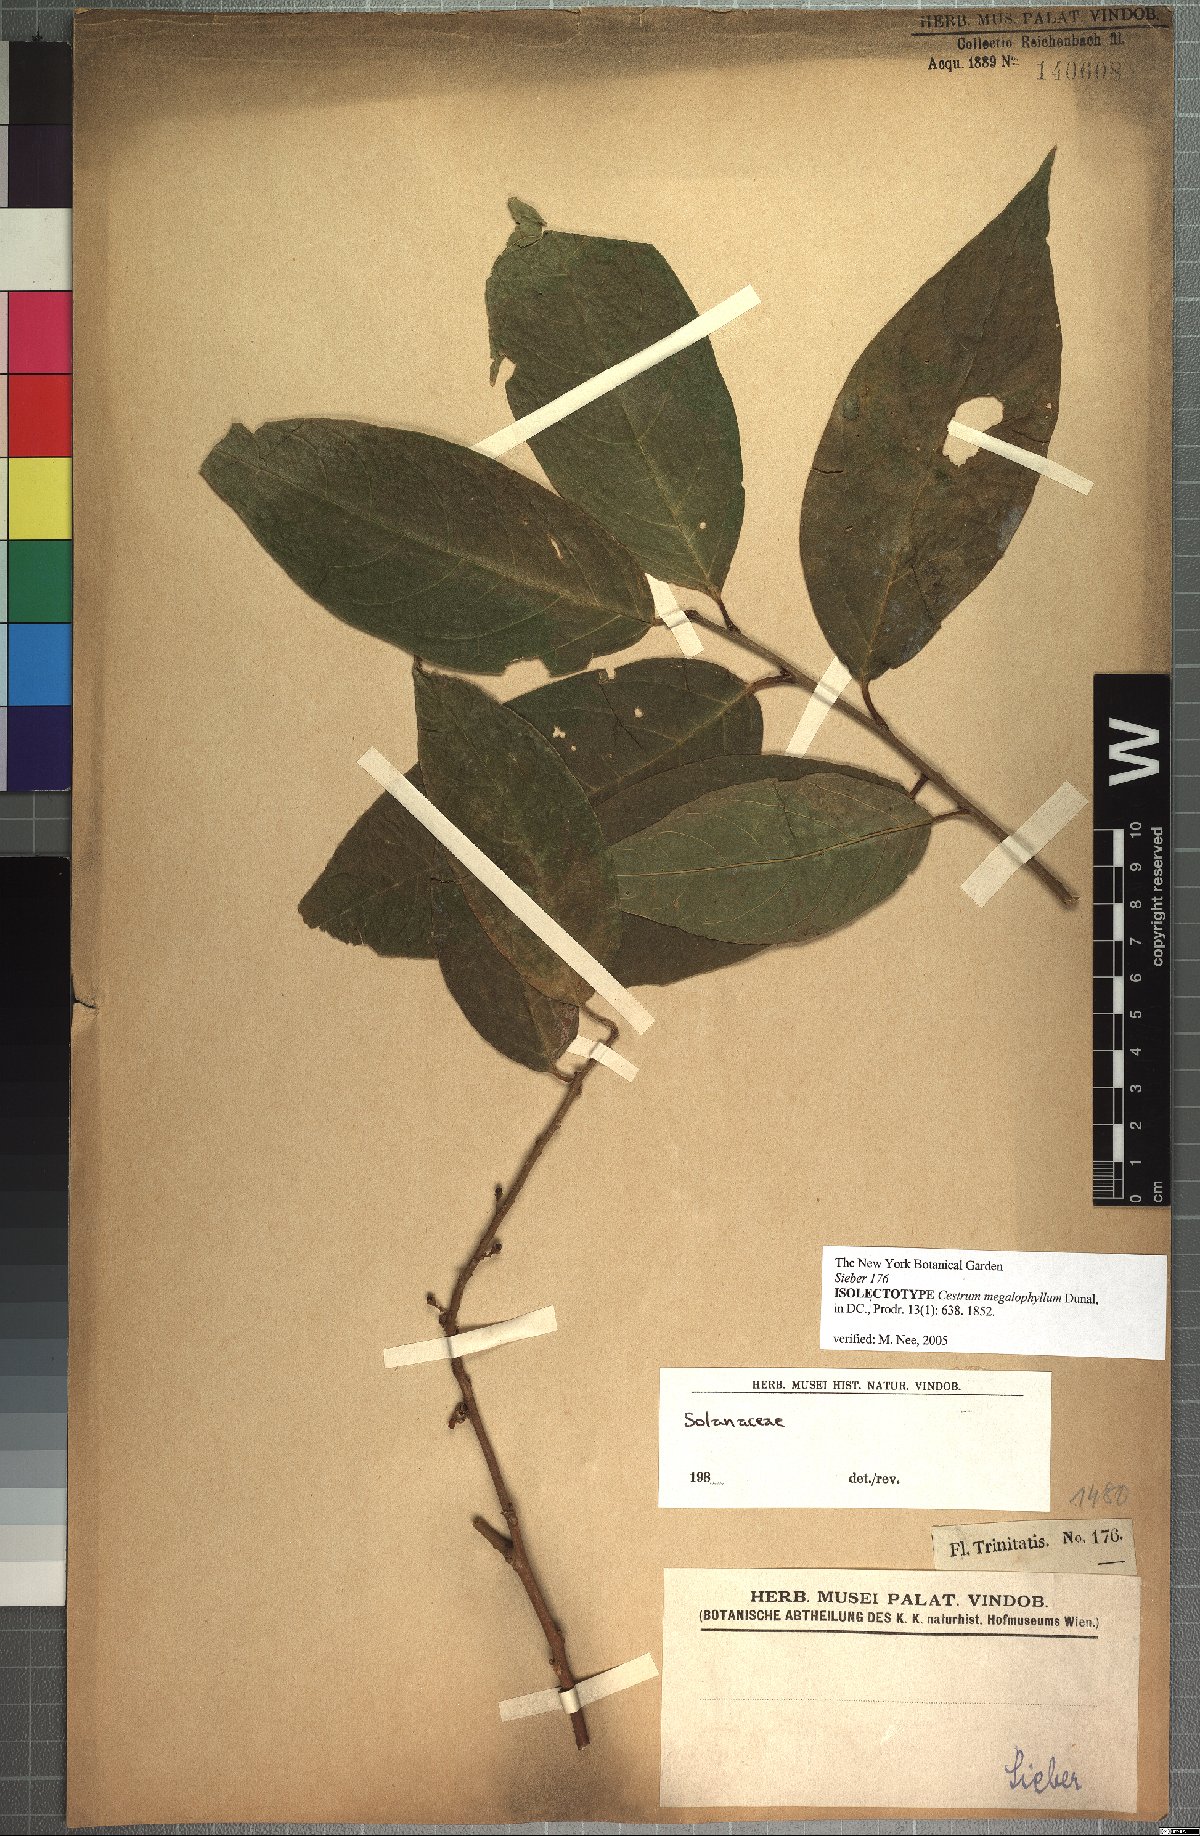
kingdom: Plantae
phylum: Tracheophyta
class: Magnoliopsida
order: Solanales
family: Solanaceae
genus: Cestrum
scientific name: Cestrum megalophyllum
